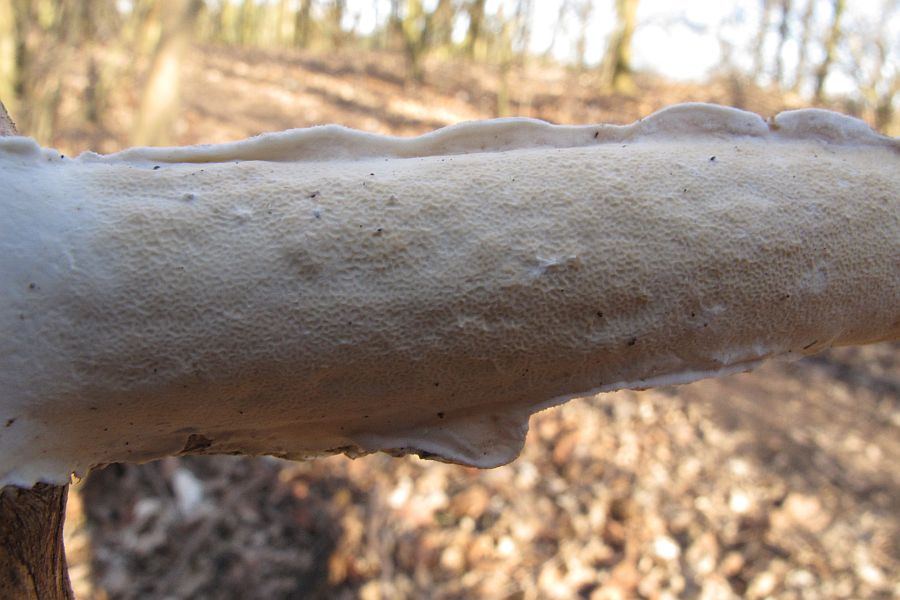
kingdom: Fungi
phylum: Basidiomycota
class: Agaricomycetes
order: Polyporales
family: Irpicaceae
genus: Byssomerulius
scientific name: Byssomerulius corium
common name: læder-åresvamp
